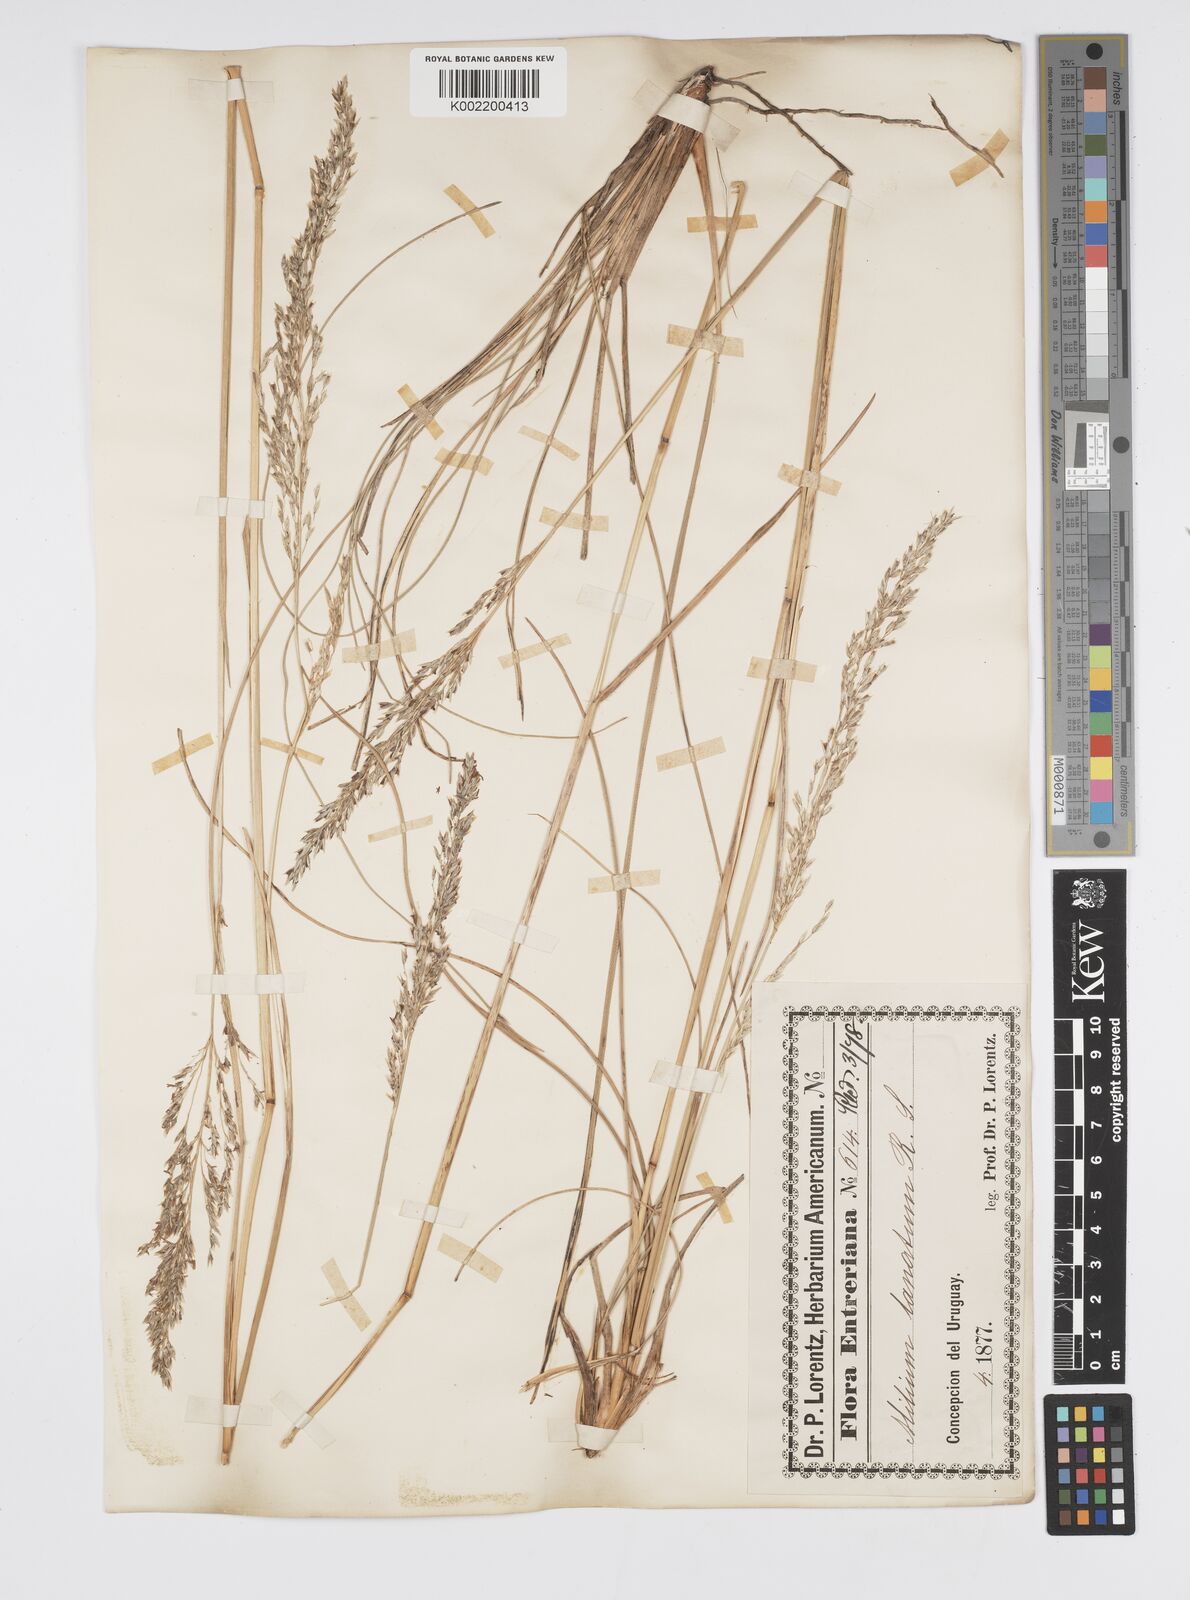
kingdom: Plantae
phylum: Tracheophyta
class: Liliopsida
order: Poales
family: Poaceae
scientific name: Poaceae
